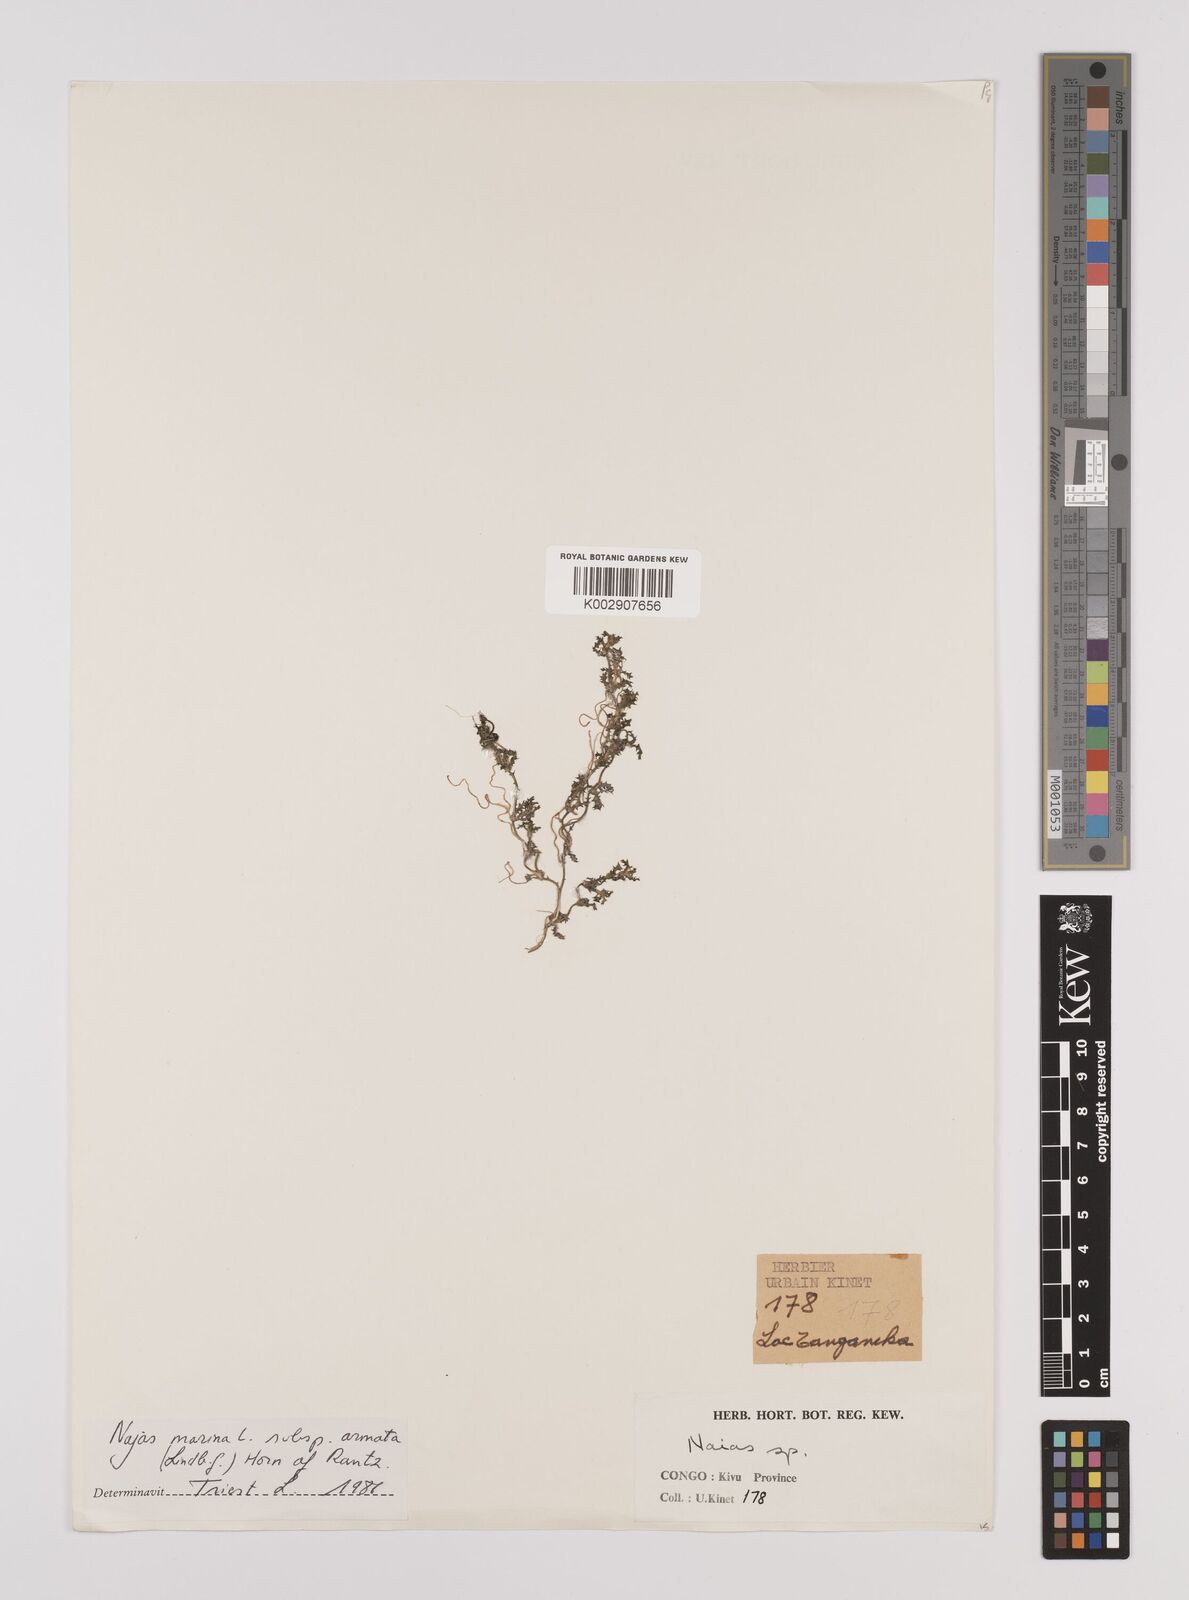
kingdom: Plantae
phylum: Tracheophyta
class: Liliopsida
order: Alismatales
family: Hydrocharitaceae
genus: Najas
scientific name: Najas marina
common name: Holly-leaved naiad
